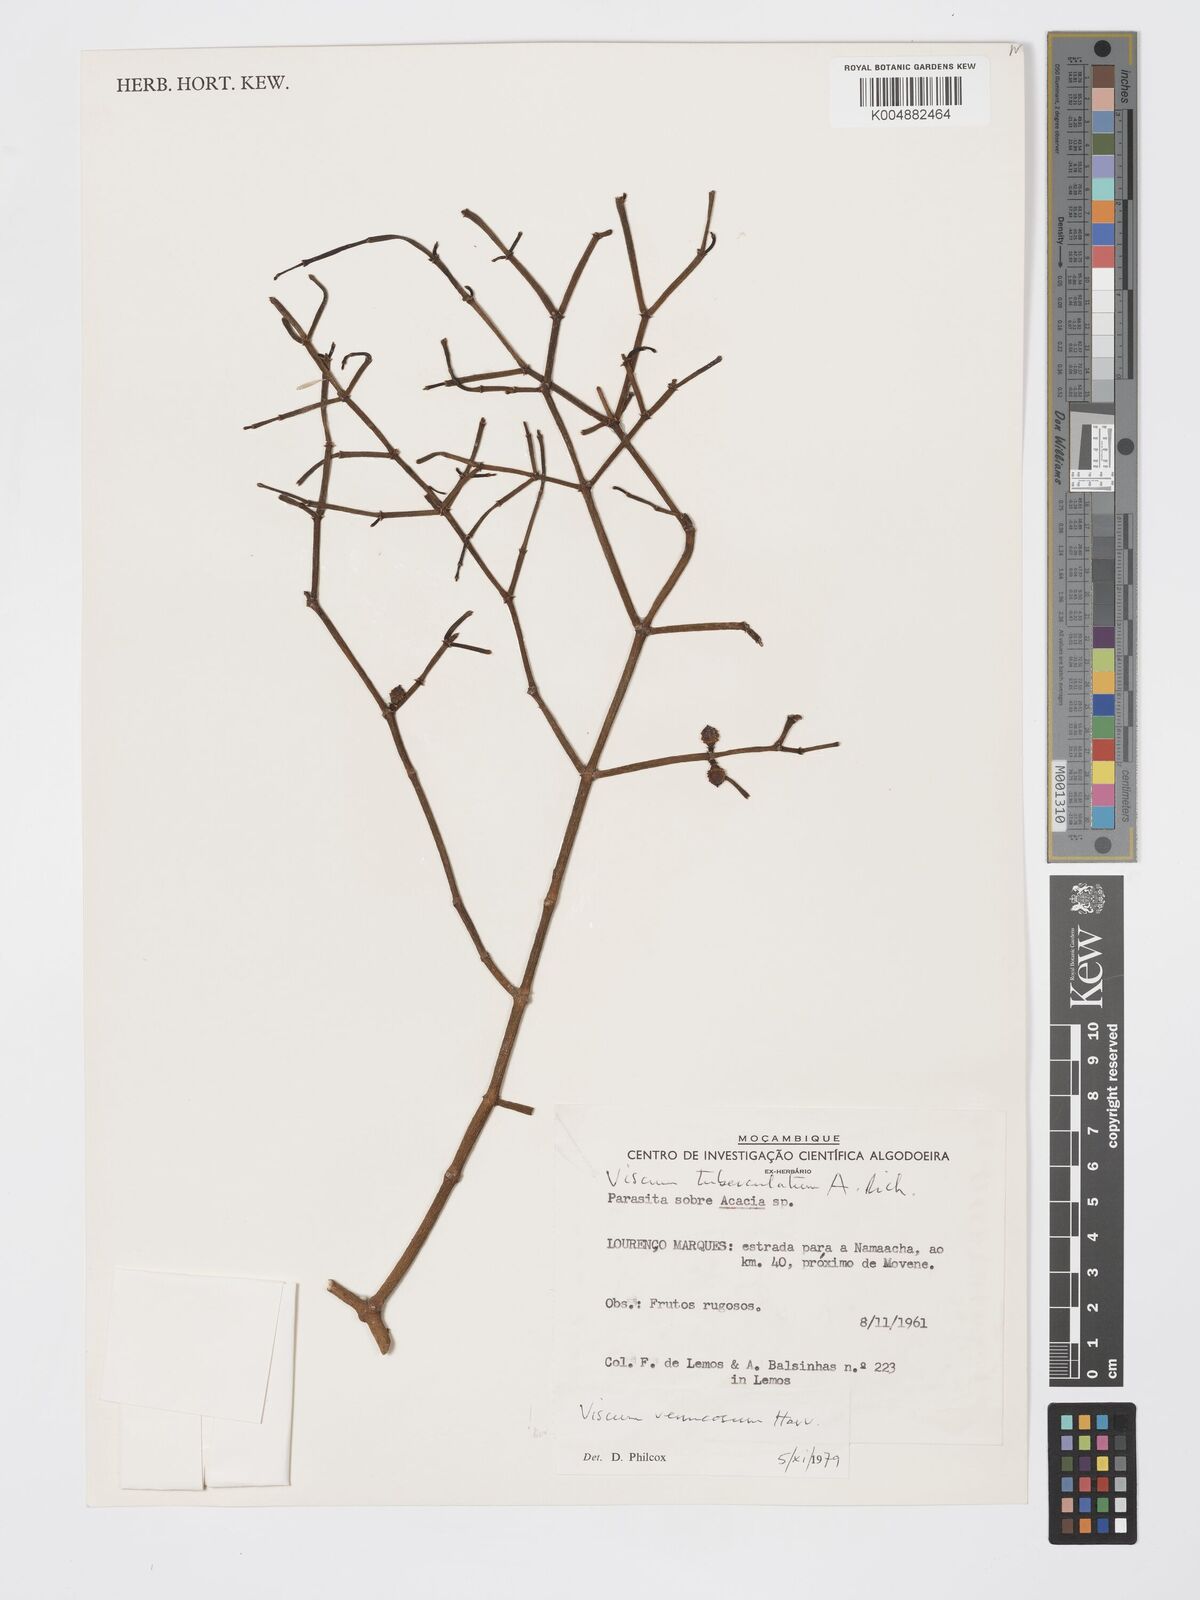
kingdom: Plantae
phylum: Tracheophyta
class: Magnoliopsida
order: Santalales
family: Viscaceae
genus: Viscum
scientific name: Viscum verrucosum
